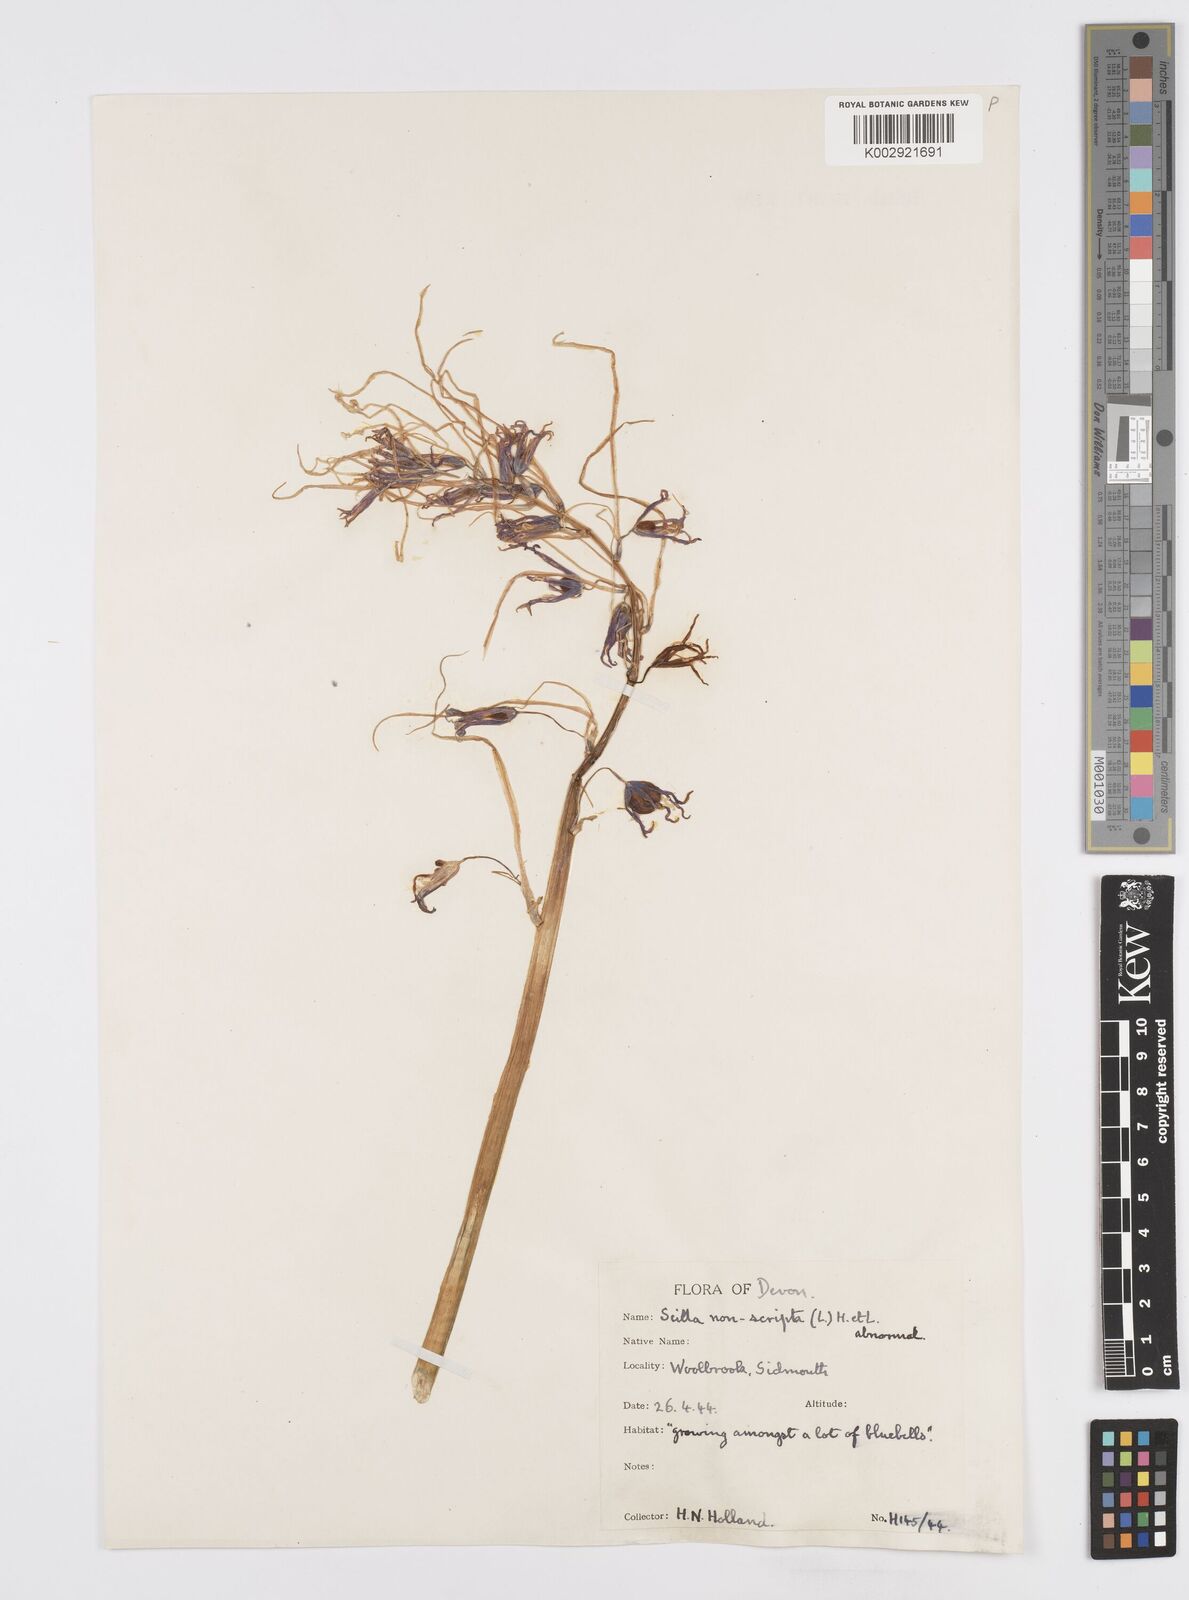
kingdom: Plantae
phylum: Tracheophyta
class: Liliopsida
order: Asparagales
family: Asparagaceae
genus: Hyacinthoides
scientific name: Hyacinthoides
